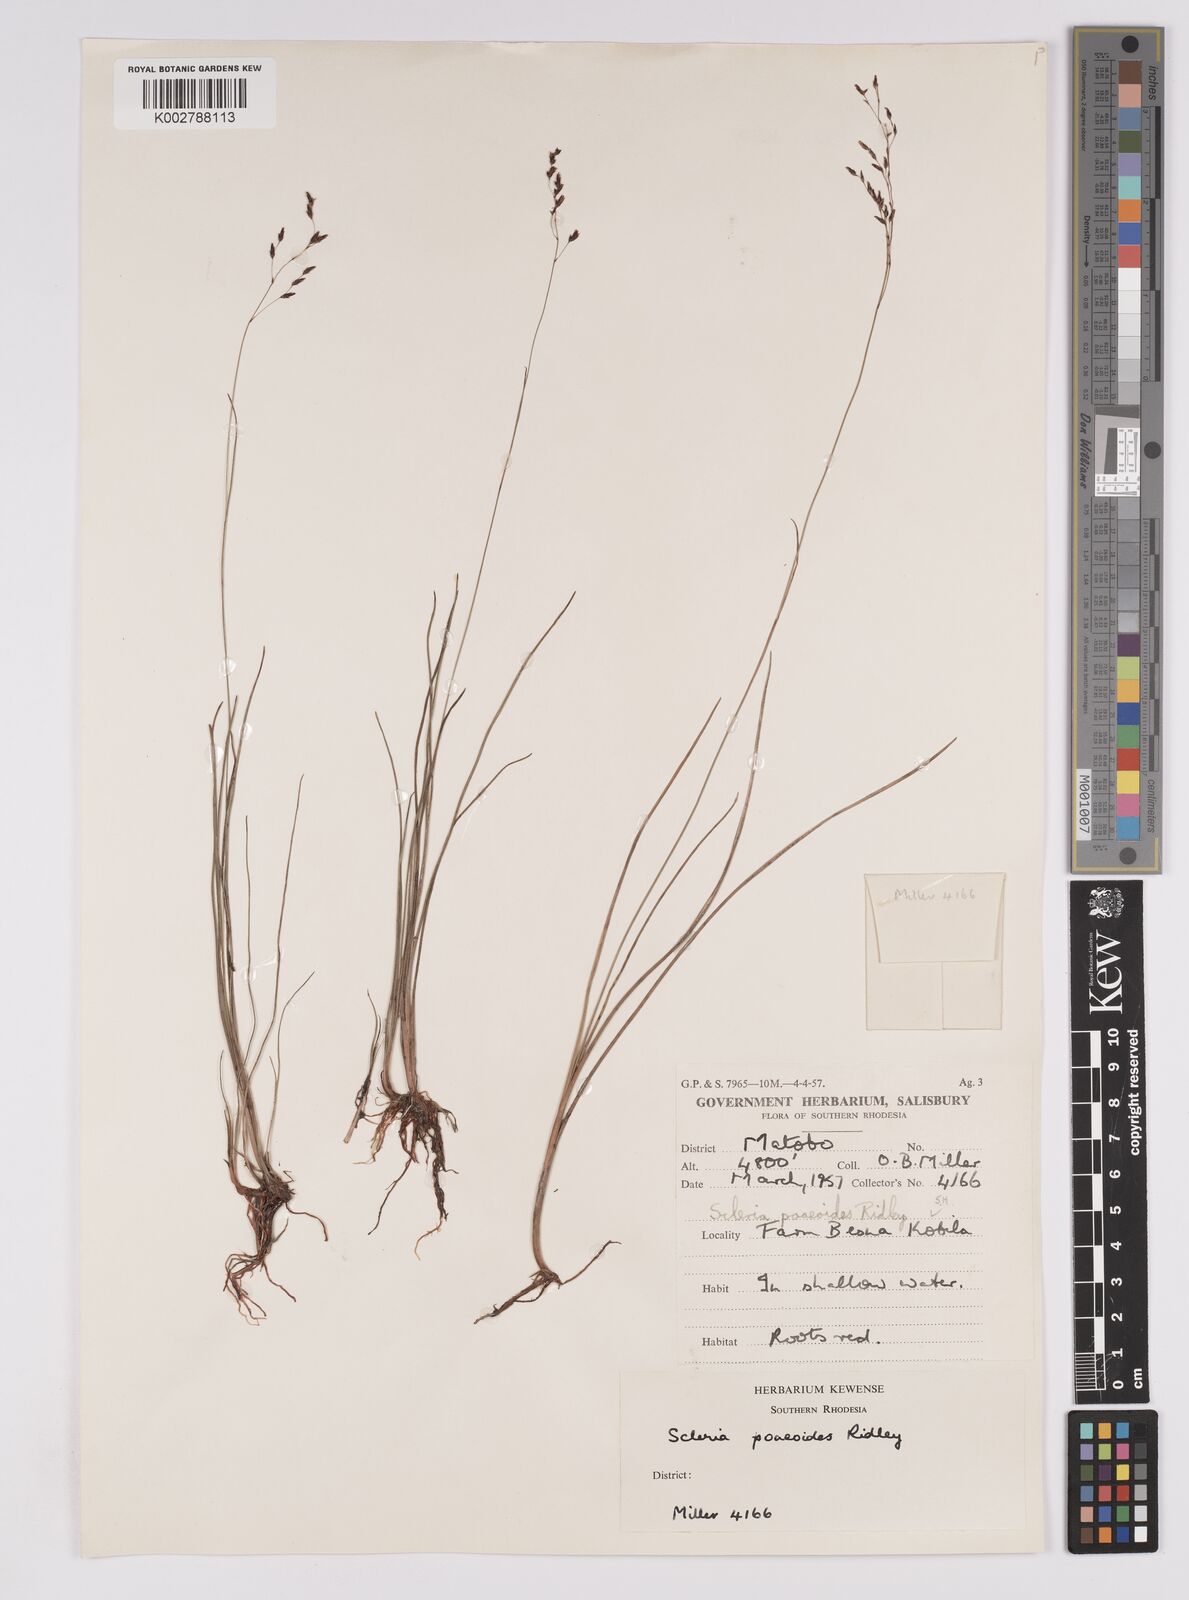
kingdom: Plantae
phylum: Tracheophyta
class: Liliopsida
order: Poales
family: Cyperaceae
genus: Scleria
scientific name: Scleria pooides
